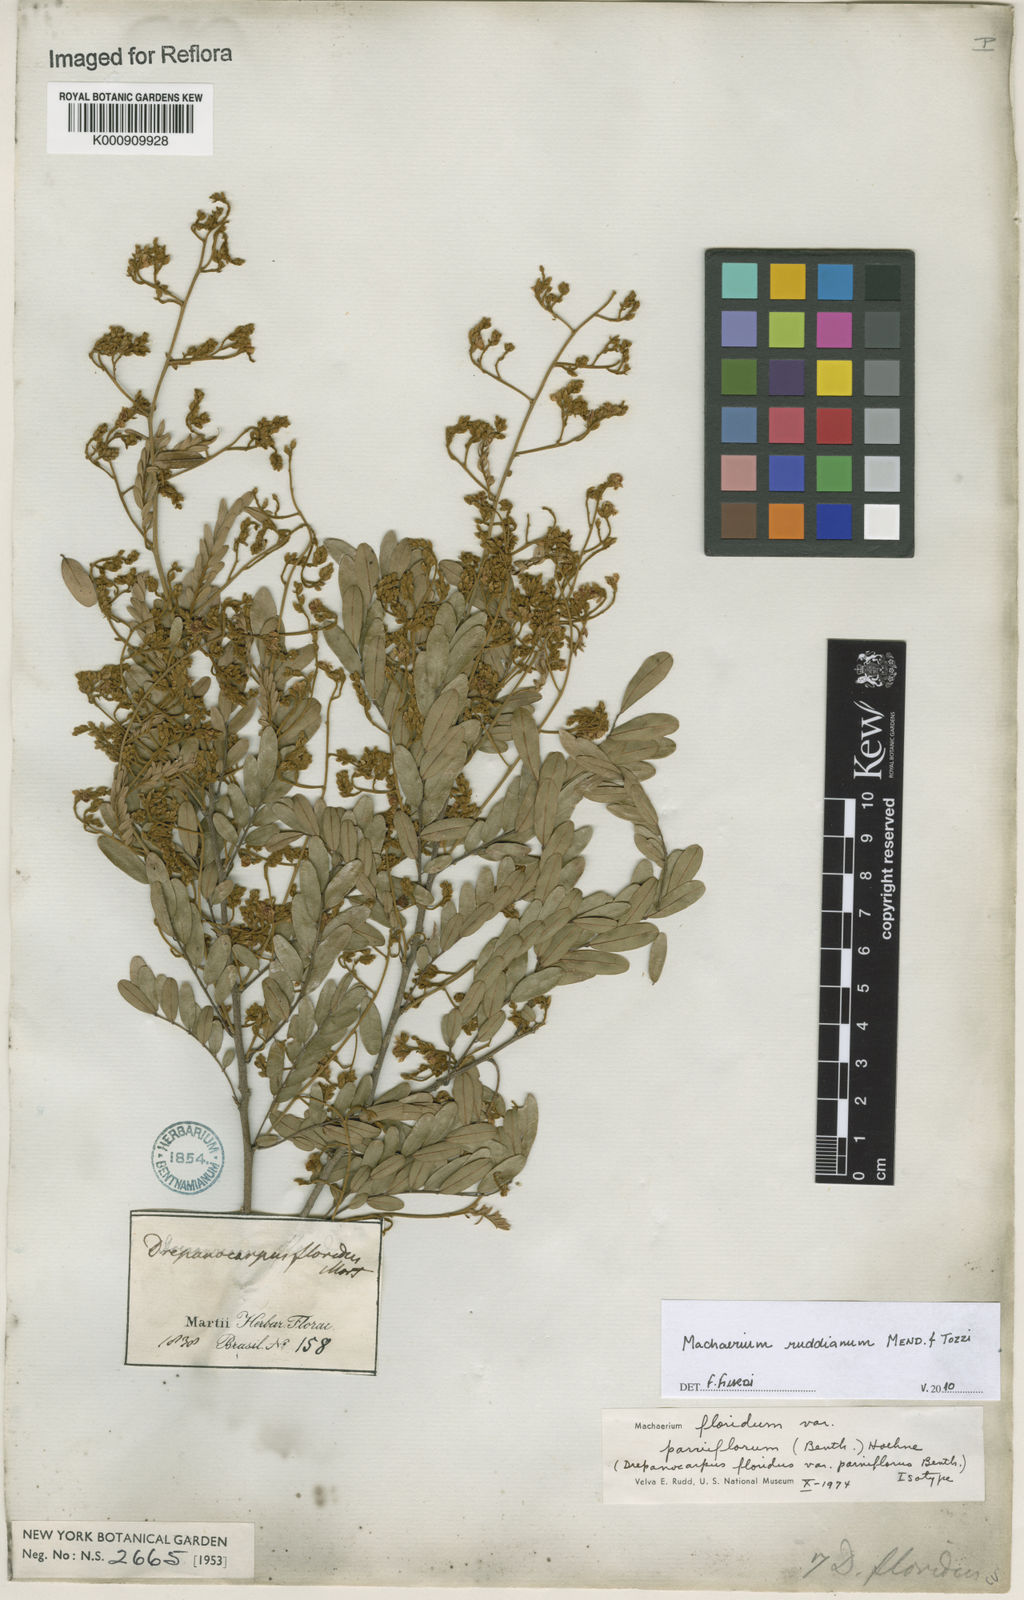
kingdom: Plantae
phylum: Tracheophyta
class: Magnoliopsida
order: Fabales
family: Fabaceae
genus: Machaerium
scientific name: Machaerium
